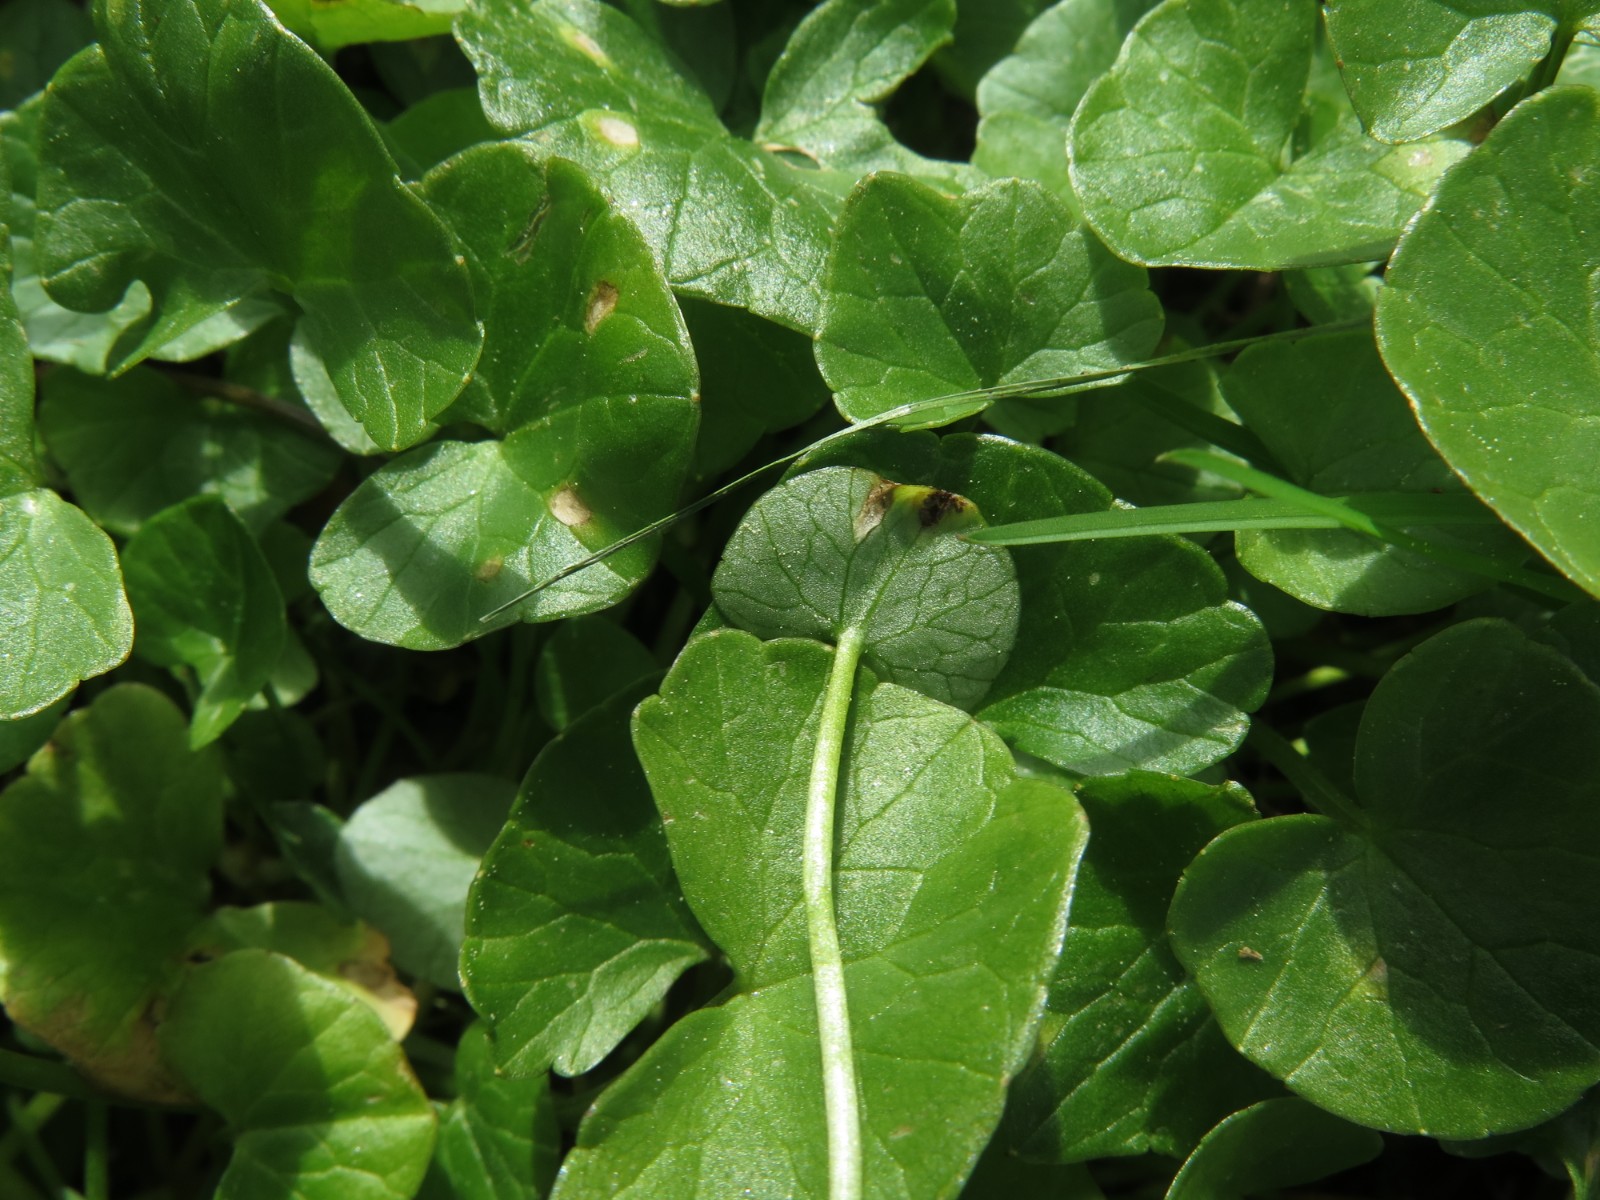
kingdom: Fungi
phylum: Basidiomycota
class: Pucciniomycetes
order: Pucciniales
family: Pucciniaceae
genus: Uromyces
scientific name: Uromyces ficariae
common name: vorterod-encellerust
